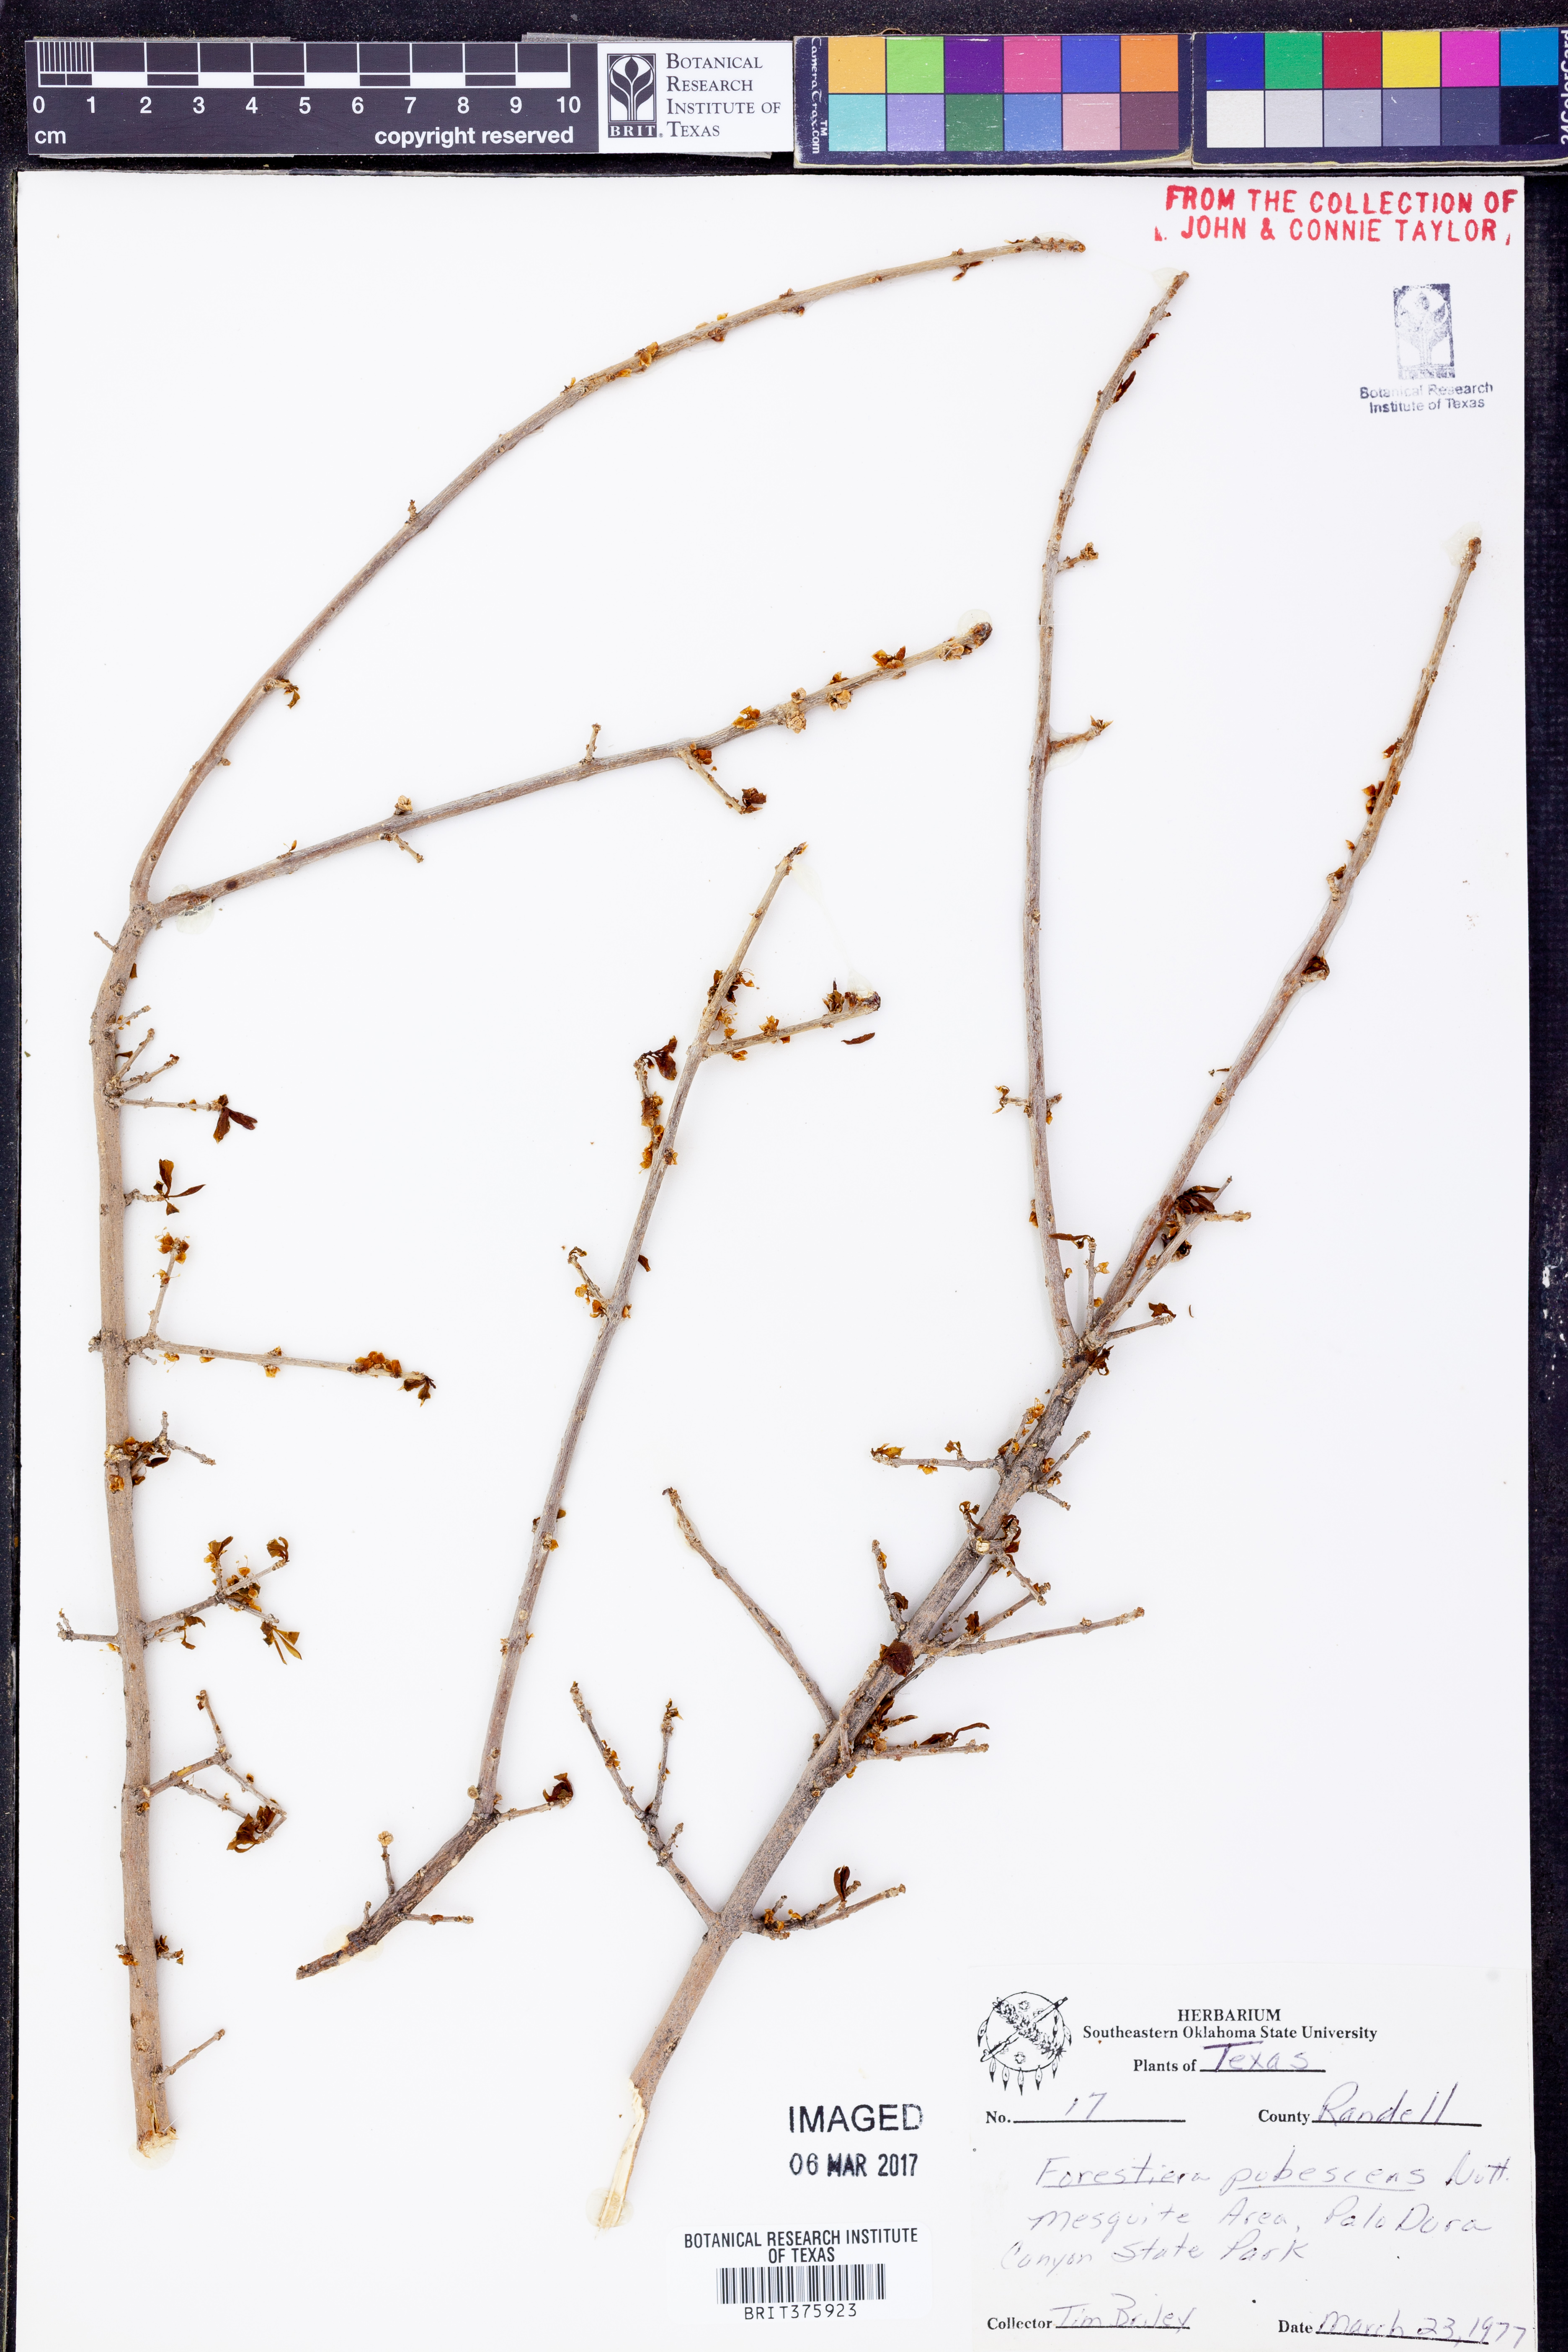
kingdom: Plantae
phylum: Tracheophyta
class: Magnoliopsida
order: Lamiales
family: Oleaceae
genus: Forestiera
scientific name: Forestiera pubescens
